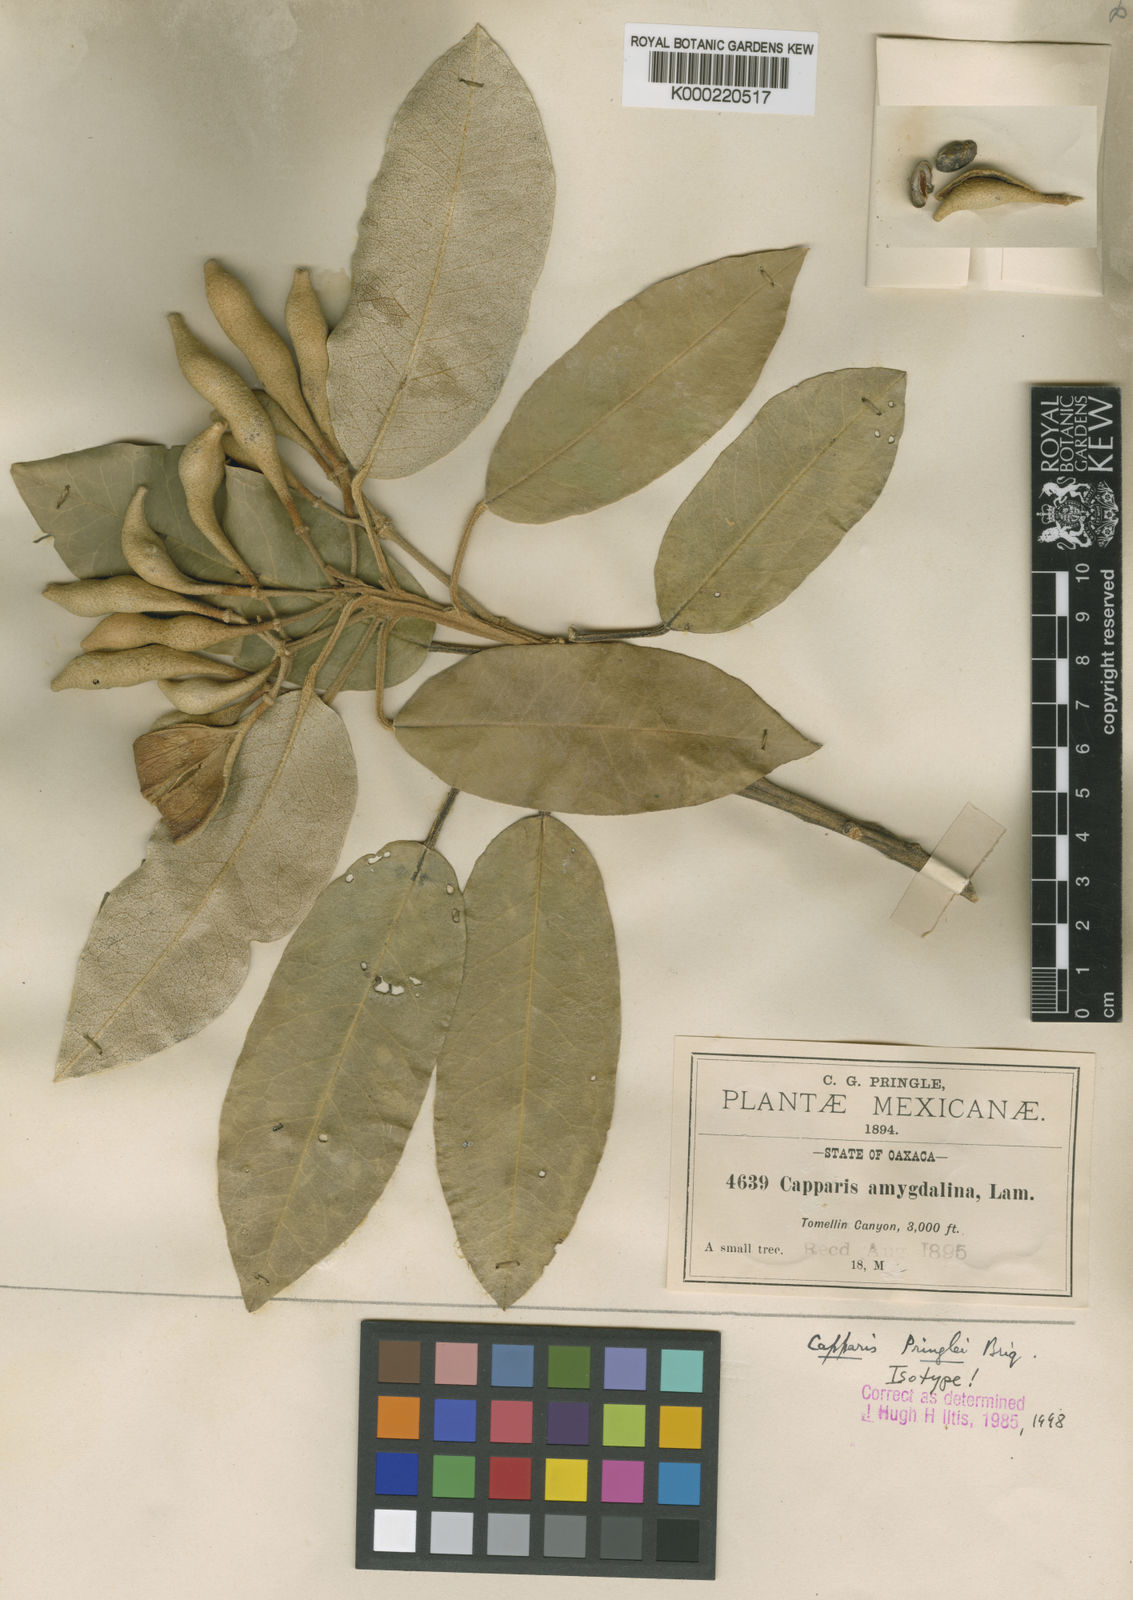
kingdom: Plantae
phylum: Tracheophyta
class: Magnoliopsida
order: Brassicales
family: Capparaceae
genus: Quadrella
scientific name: Quadrella pringlei
